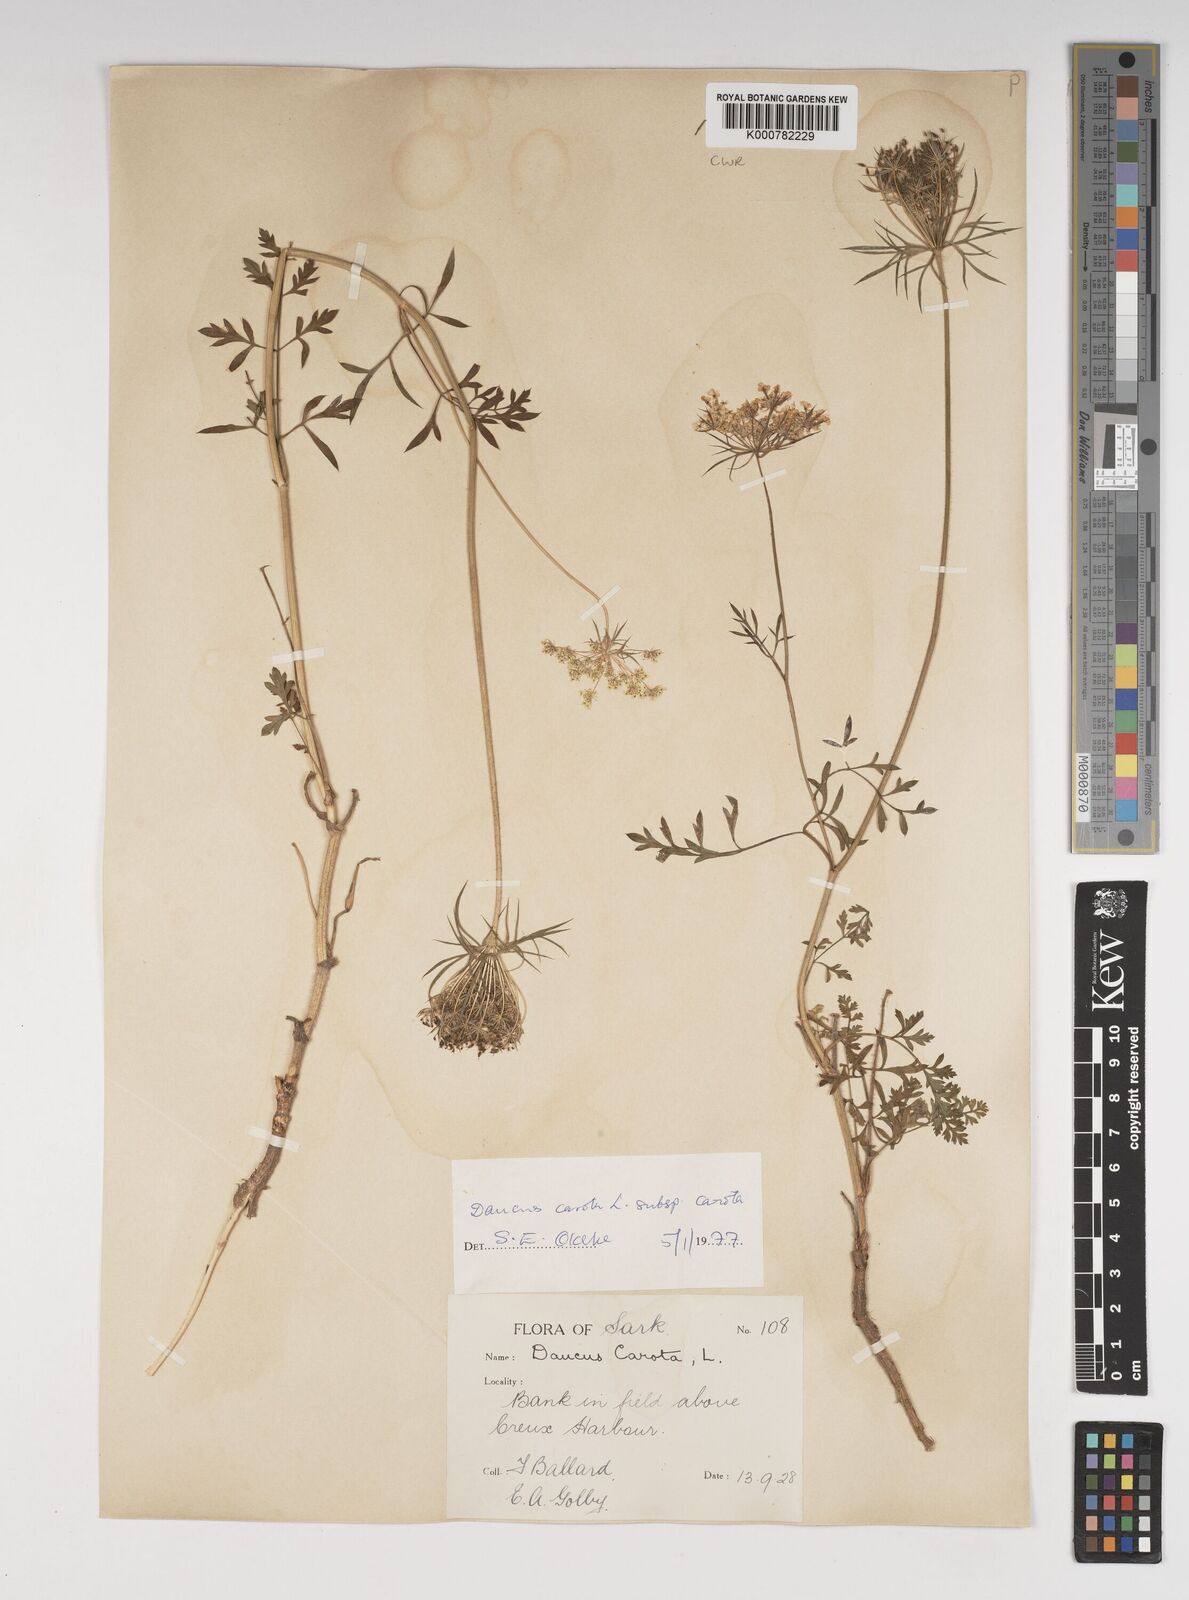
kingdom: Plantae
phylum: Tracheophyta
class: Magnoliopsida
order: Apiales
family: Apiaceae
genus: Daucus
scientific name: Daucus carota
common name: Wild carrot
